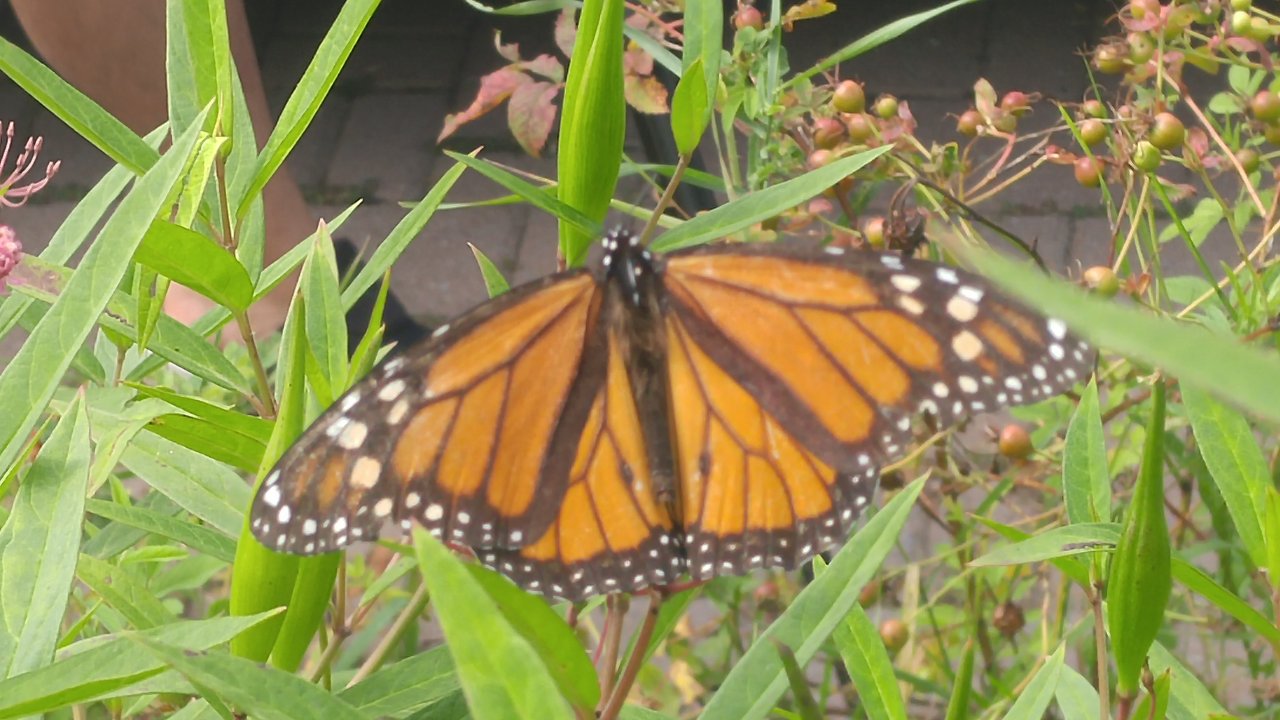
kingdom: Animalia
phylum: Arthropoda
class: Insecta
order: Lepidoptera
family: Nymphalidae
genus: Danaus
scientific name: Danaus plexippus
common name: Monarch
